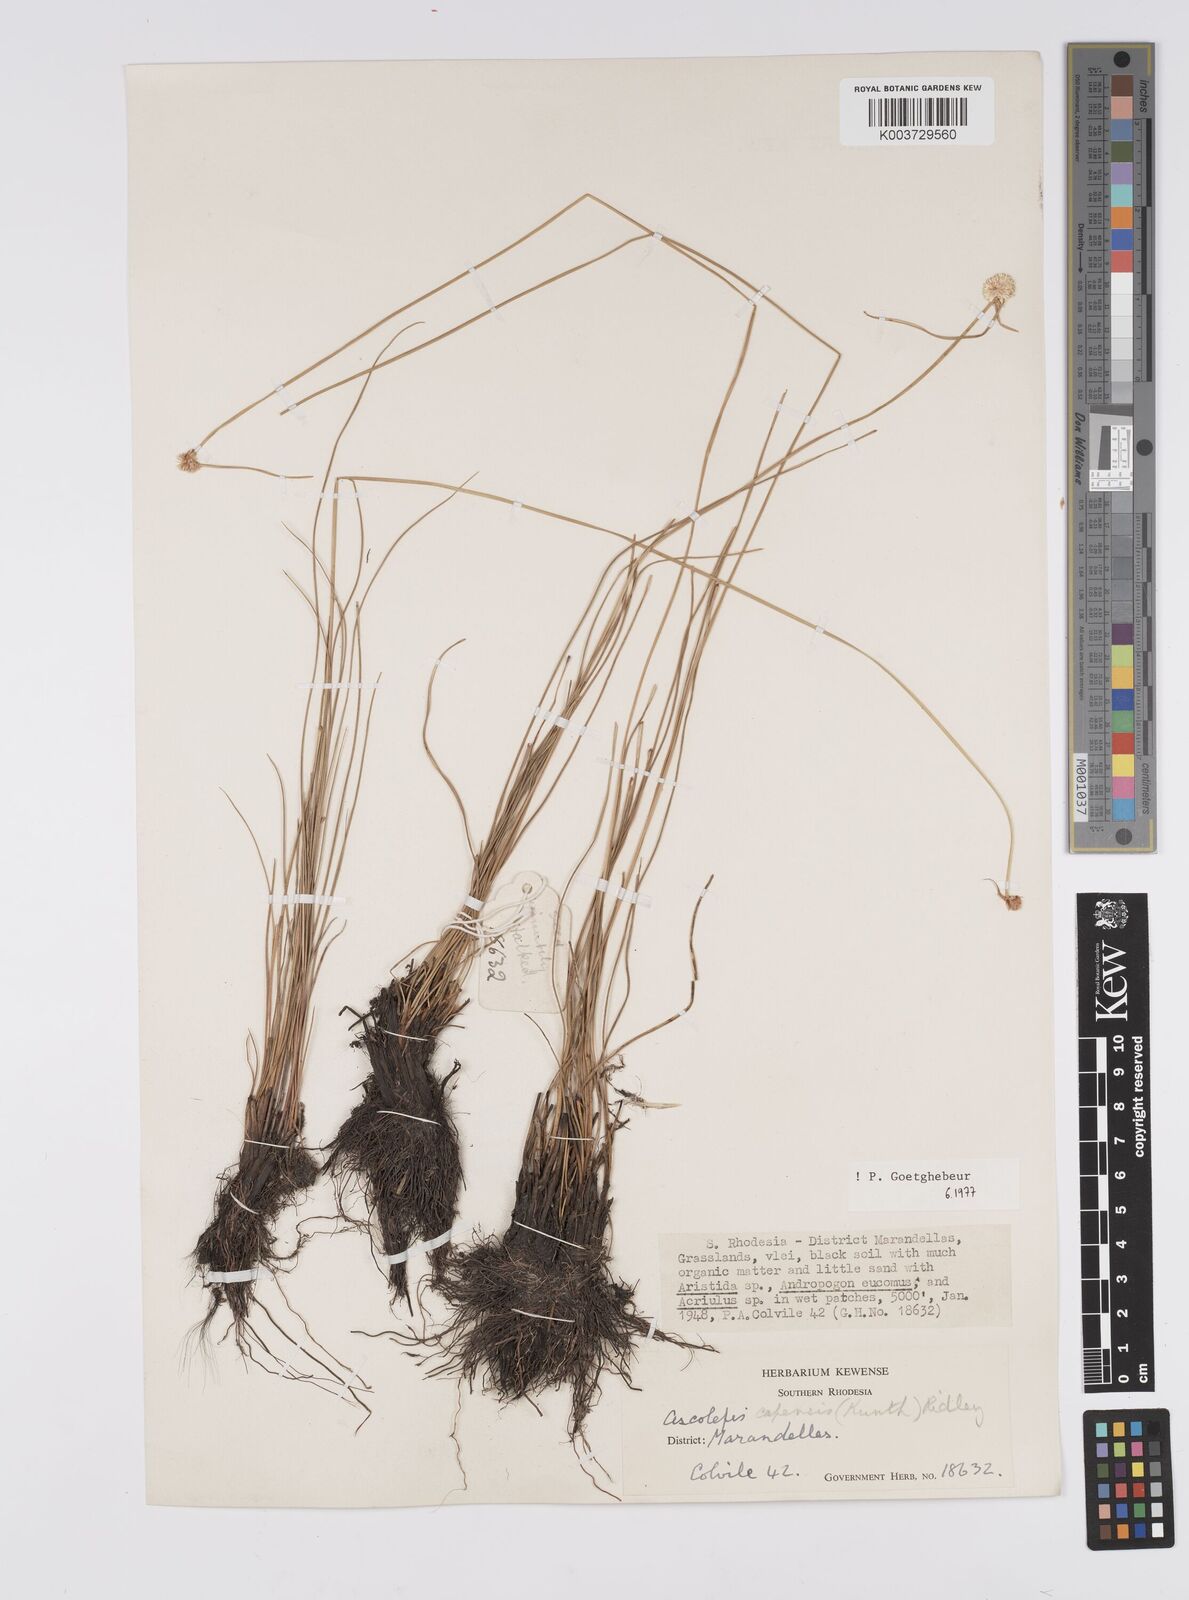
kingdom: Plantae
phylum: Tracheophyta
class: Liliopsida
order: Poales
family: Cyperaceae
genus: Cyperus
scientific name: Cyperus
